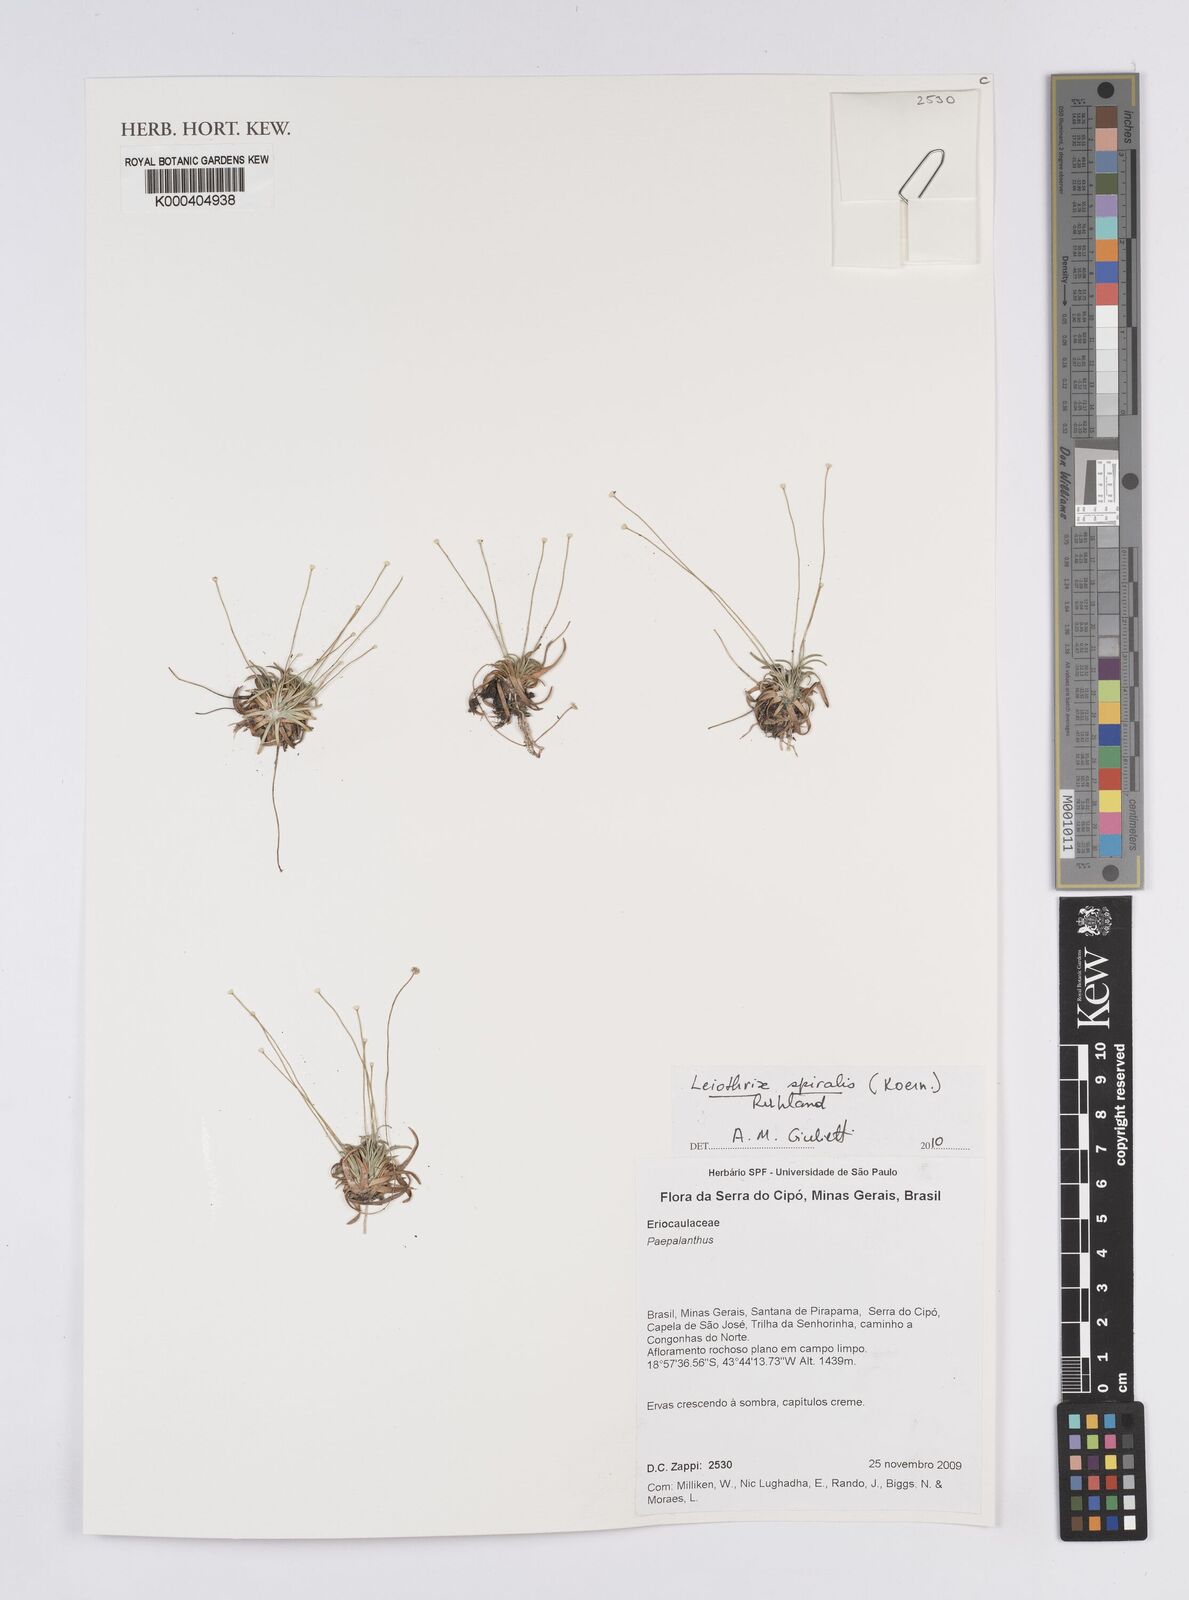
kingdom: Plantae
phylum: Tracheophyta
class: Liliopsida
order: Poales
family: Eriocaulaceae
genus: Leiothrix
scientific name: Leiothrix spiralis
